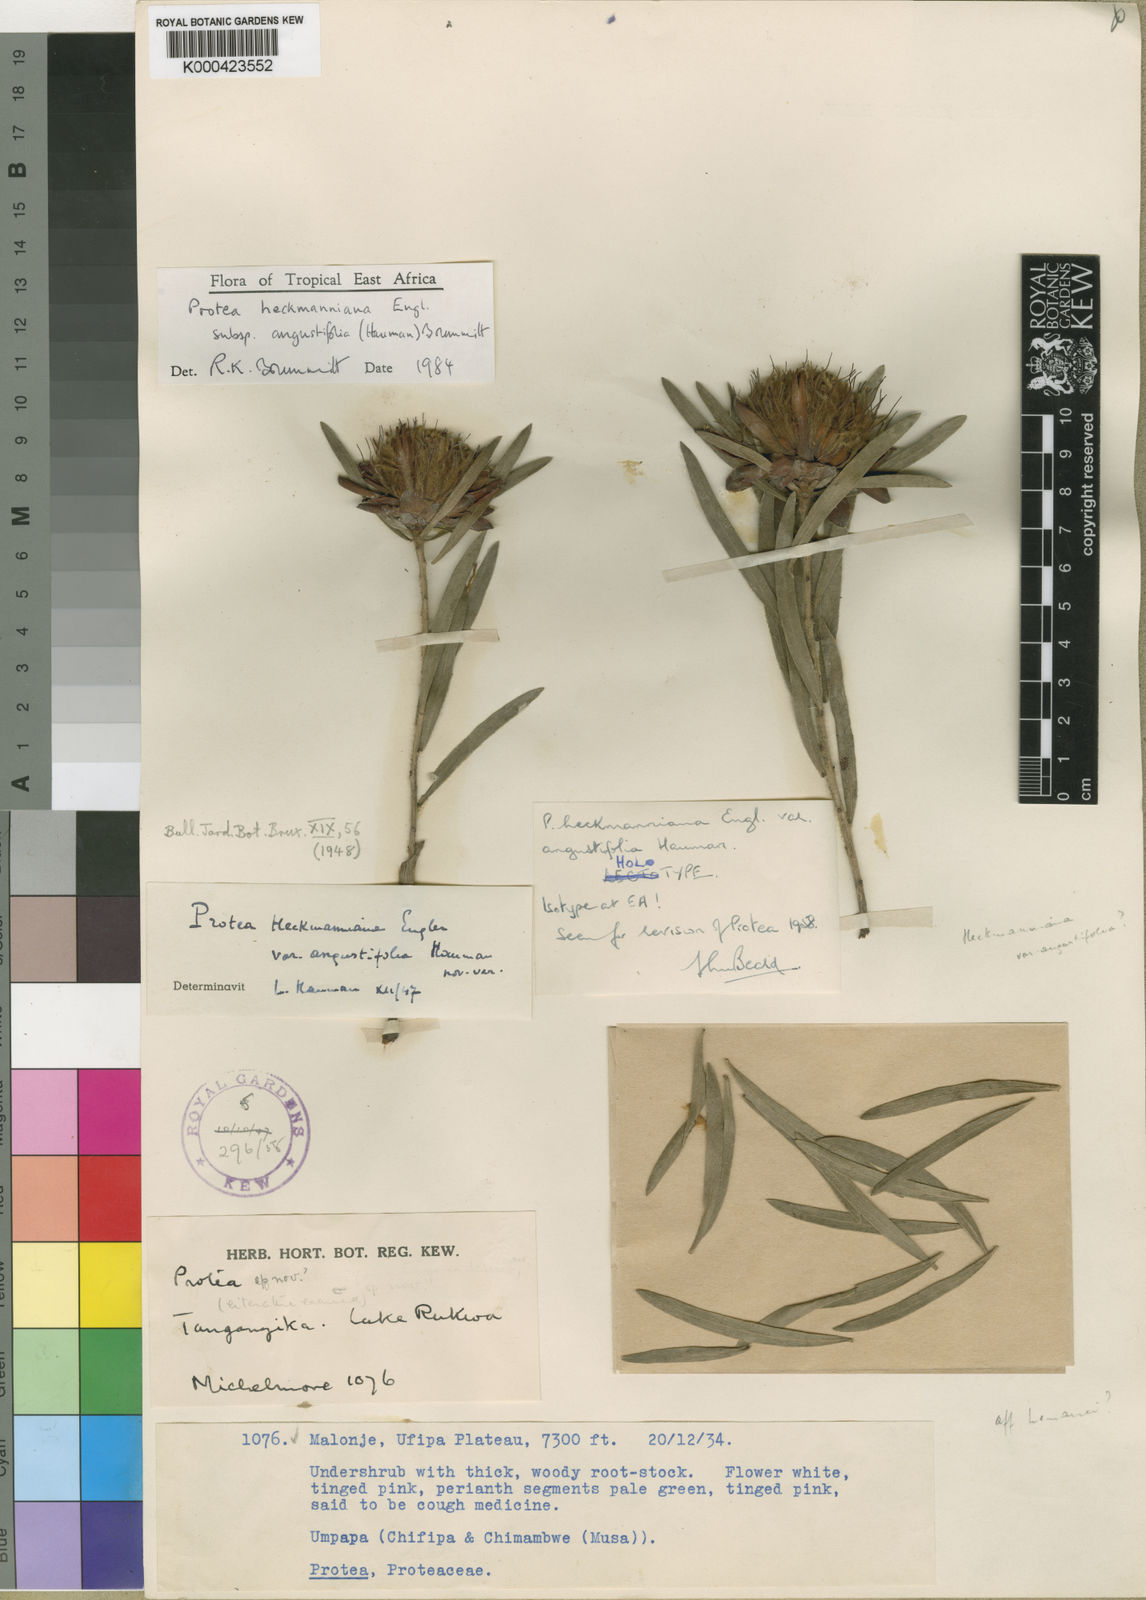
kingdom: Plantae
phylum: Tracheophyta
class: Magnoliopsida
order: Proteales
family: Proteaceae
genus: Protea
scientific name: Protea heckmanniana
